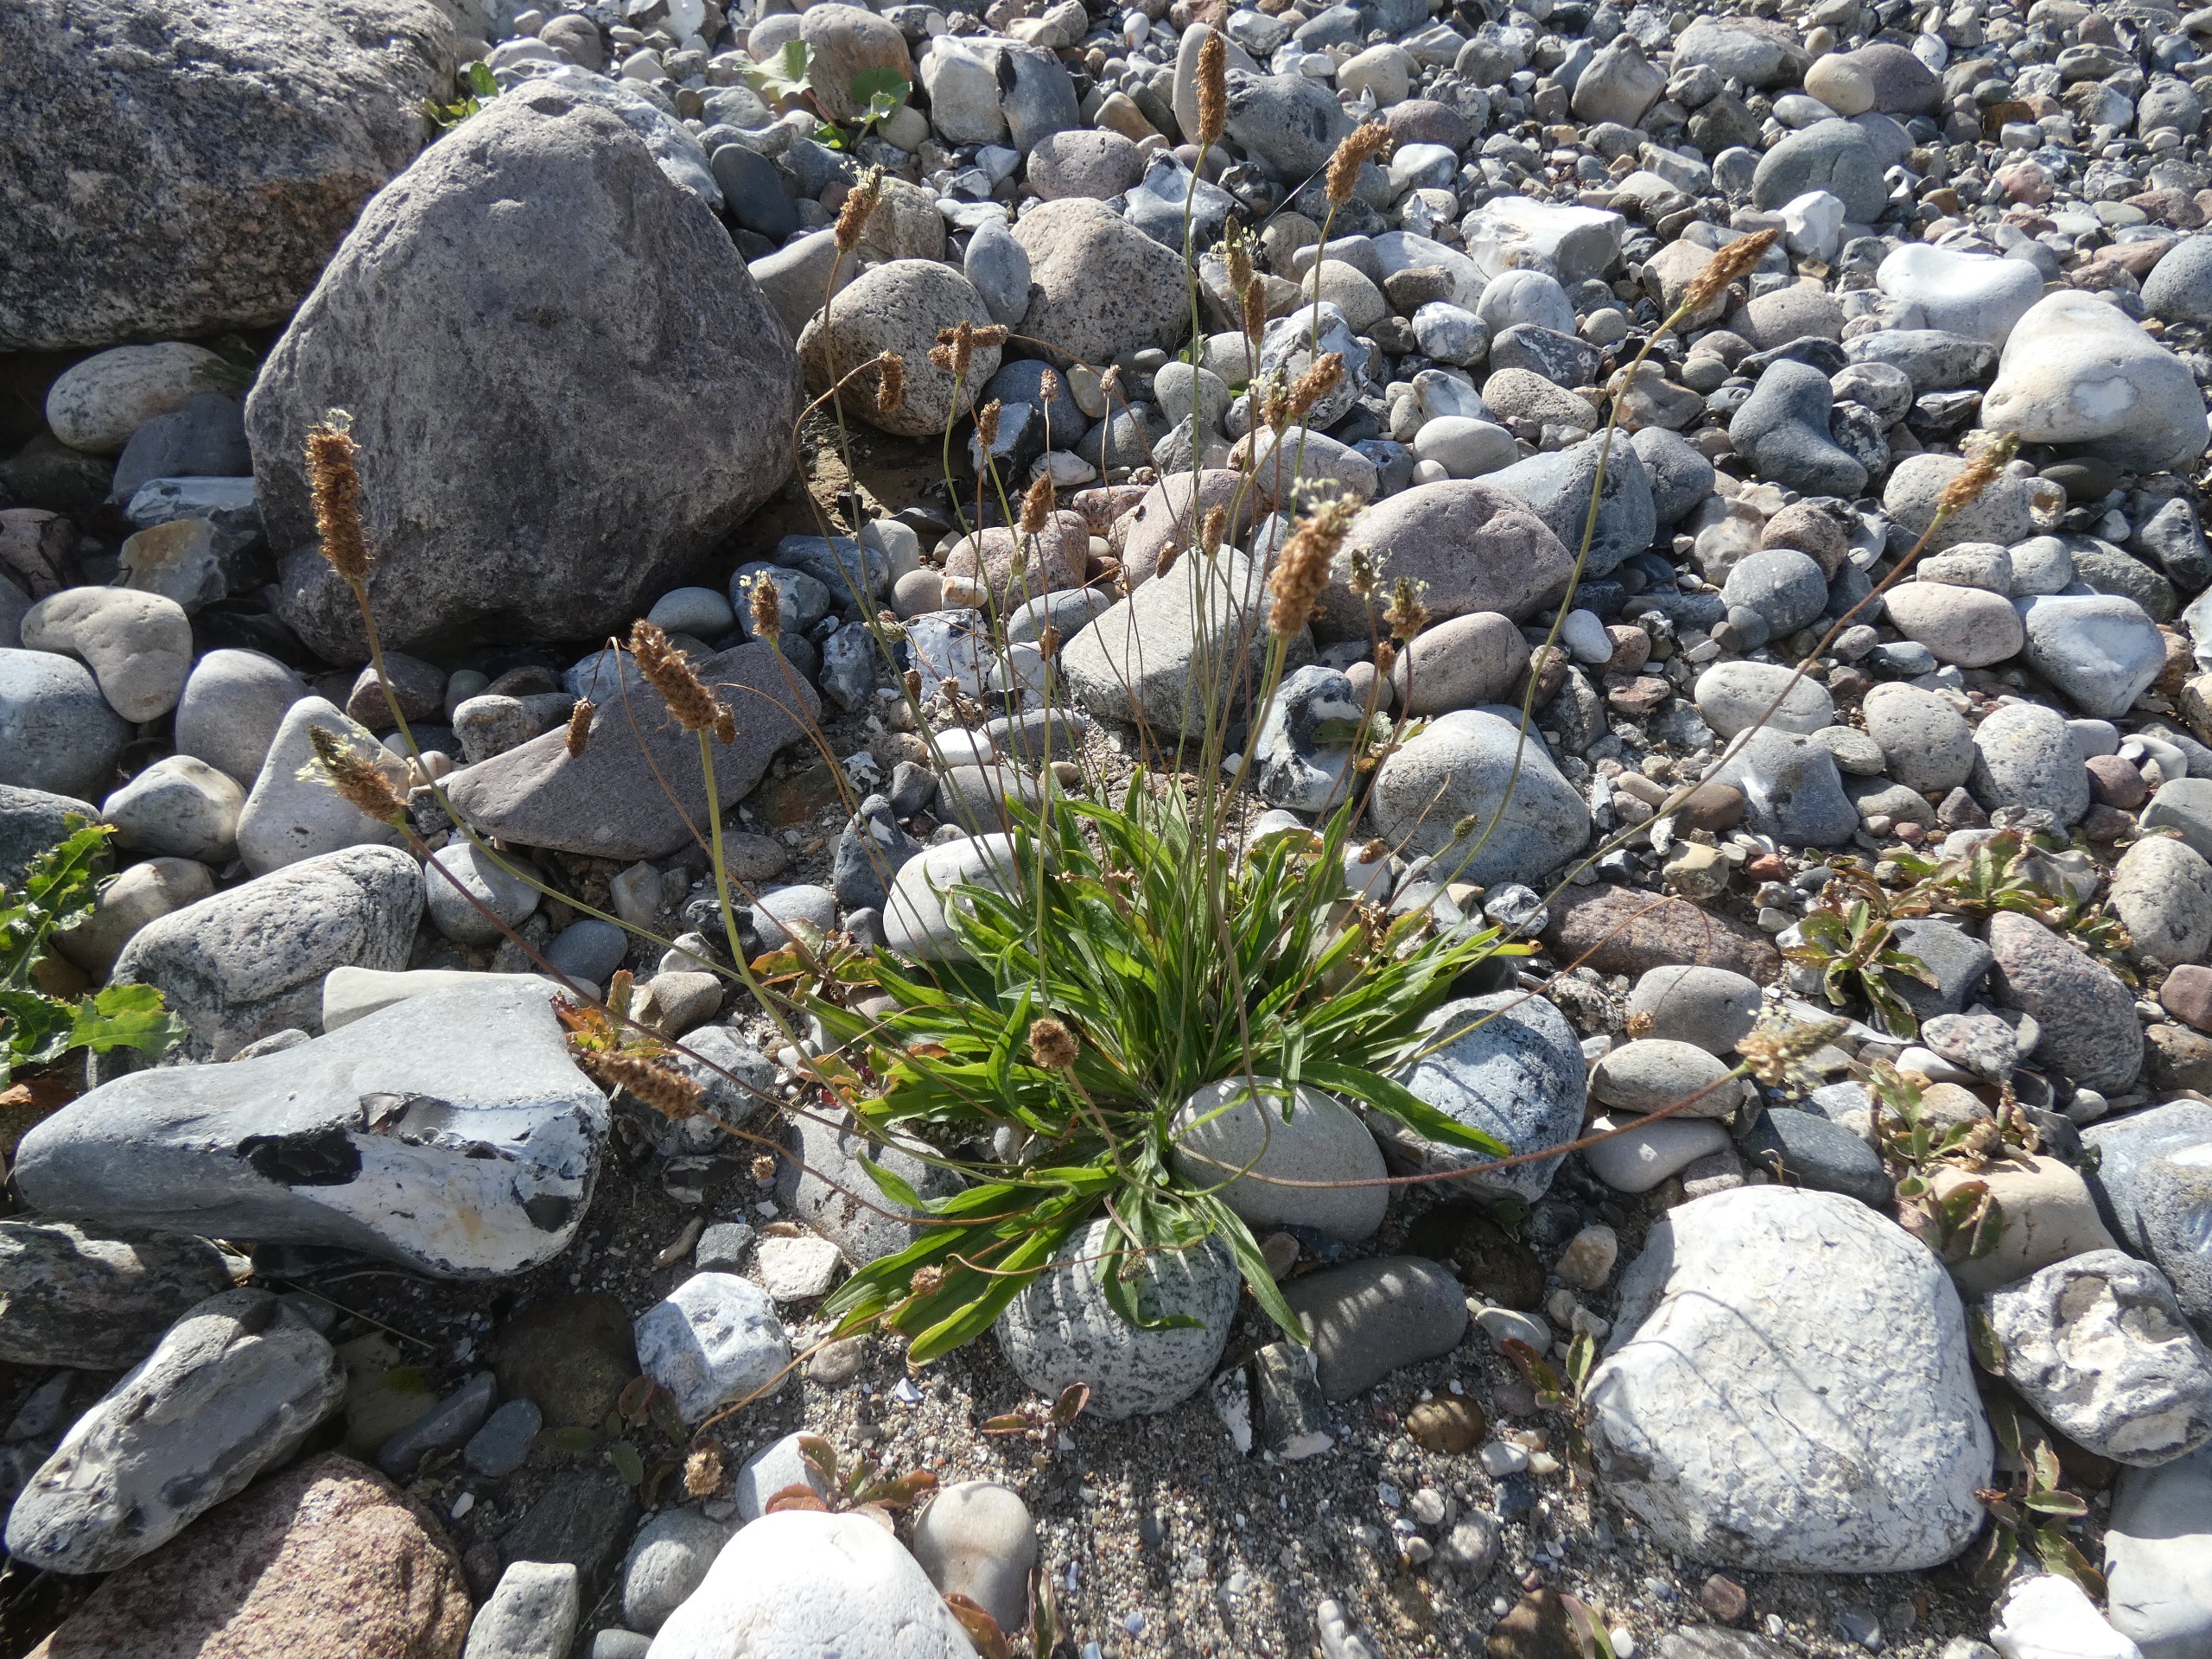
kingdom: Plantae
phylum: Tracheophyta
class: Magnoliopsida
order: Lamiales
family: Plantaginaceae
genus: Plantago
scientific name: Plantago lanceolata
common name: Lancet-vejbred
